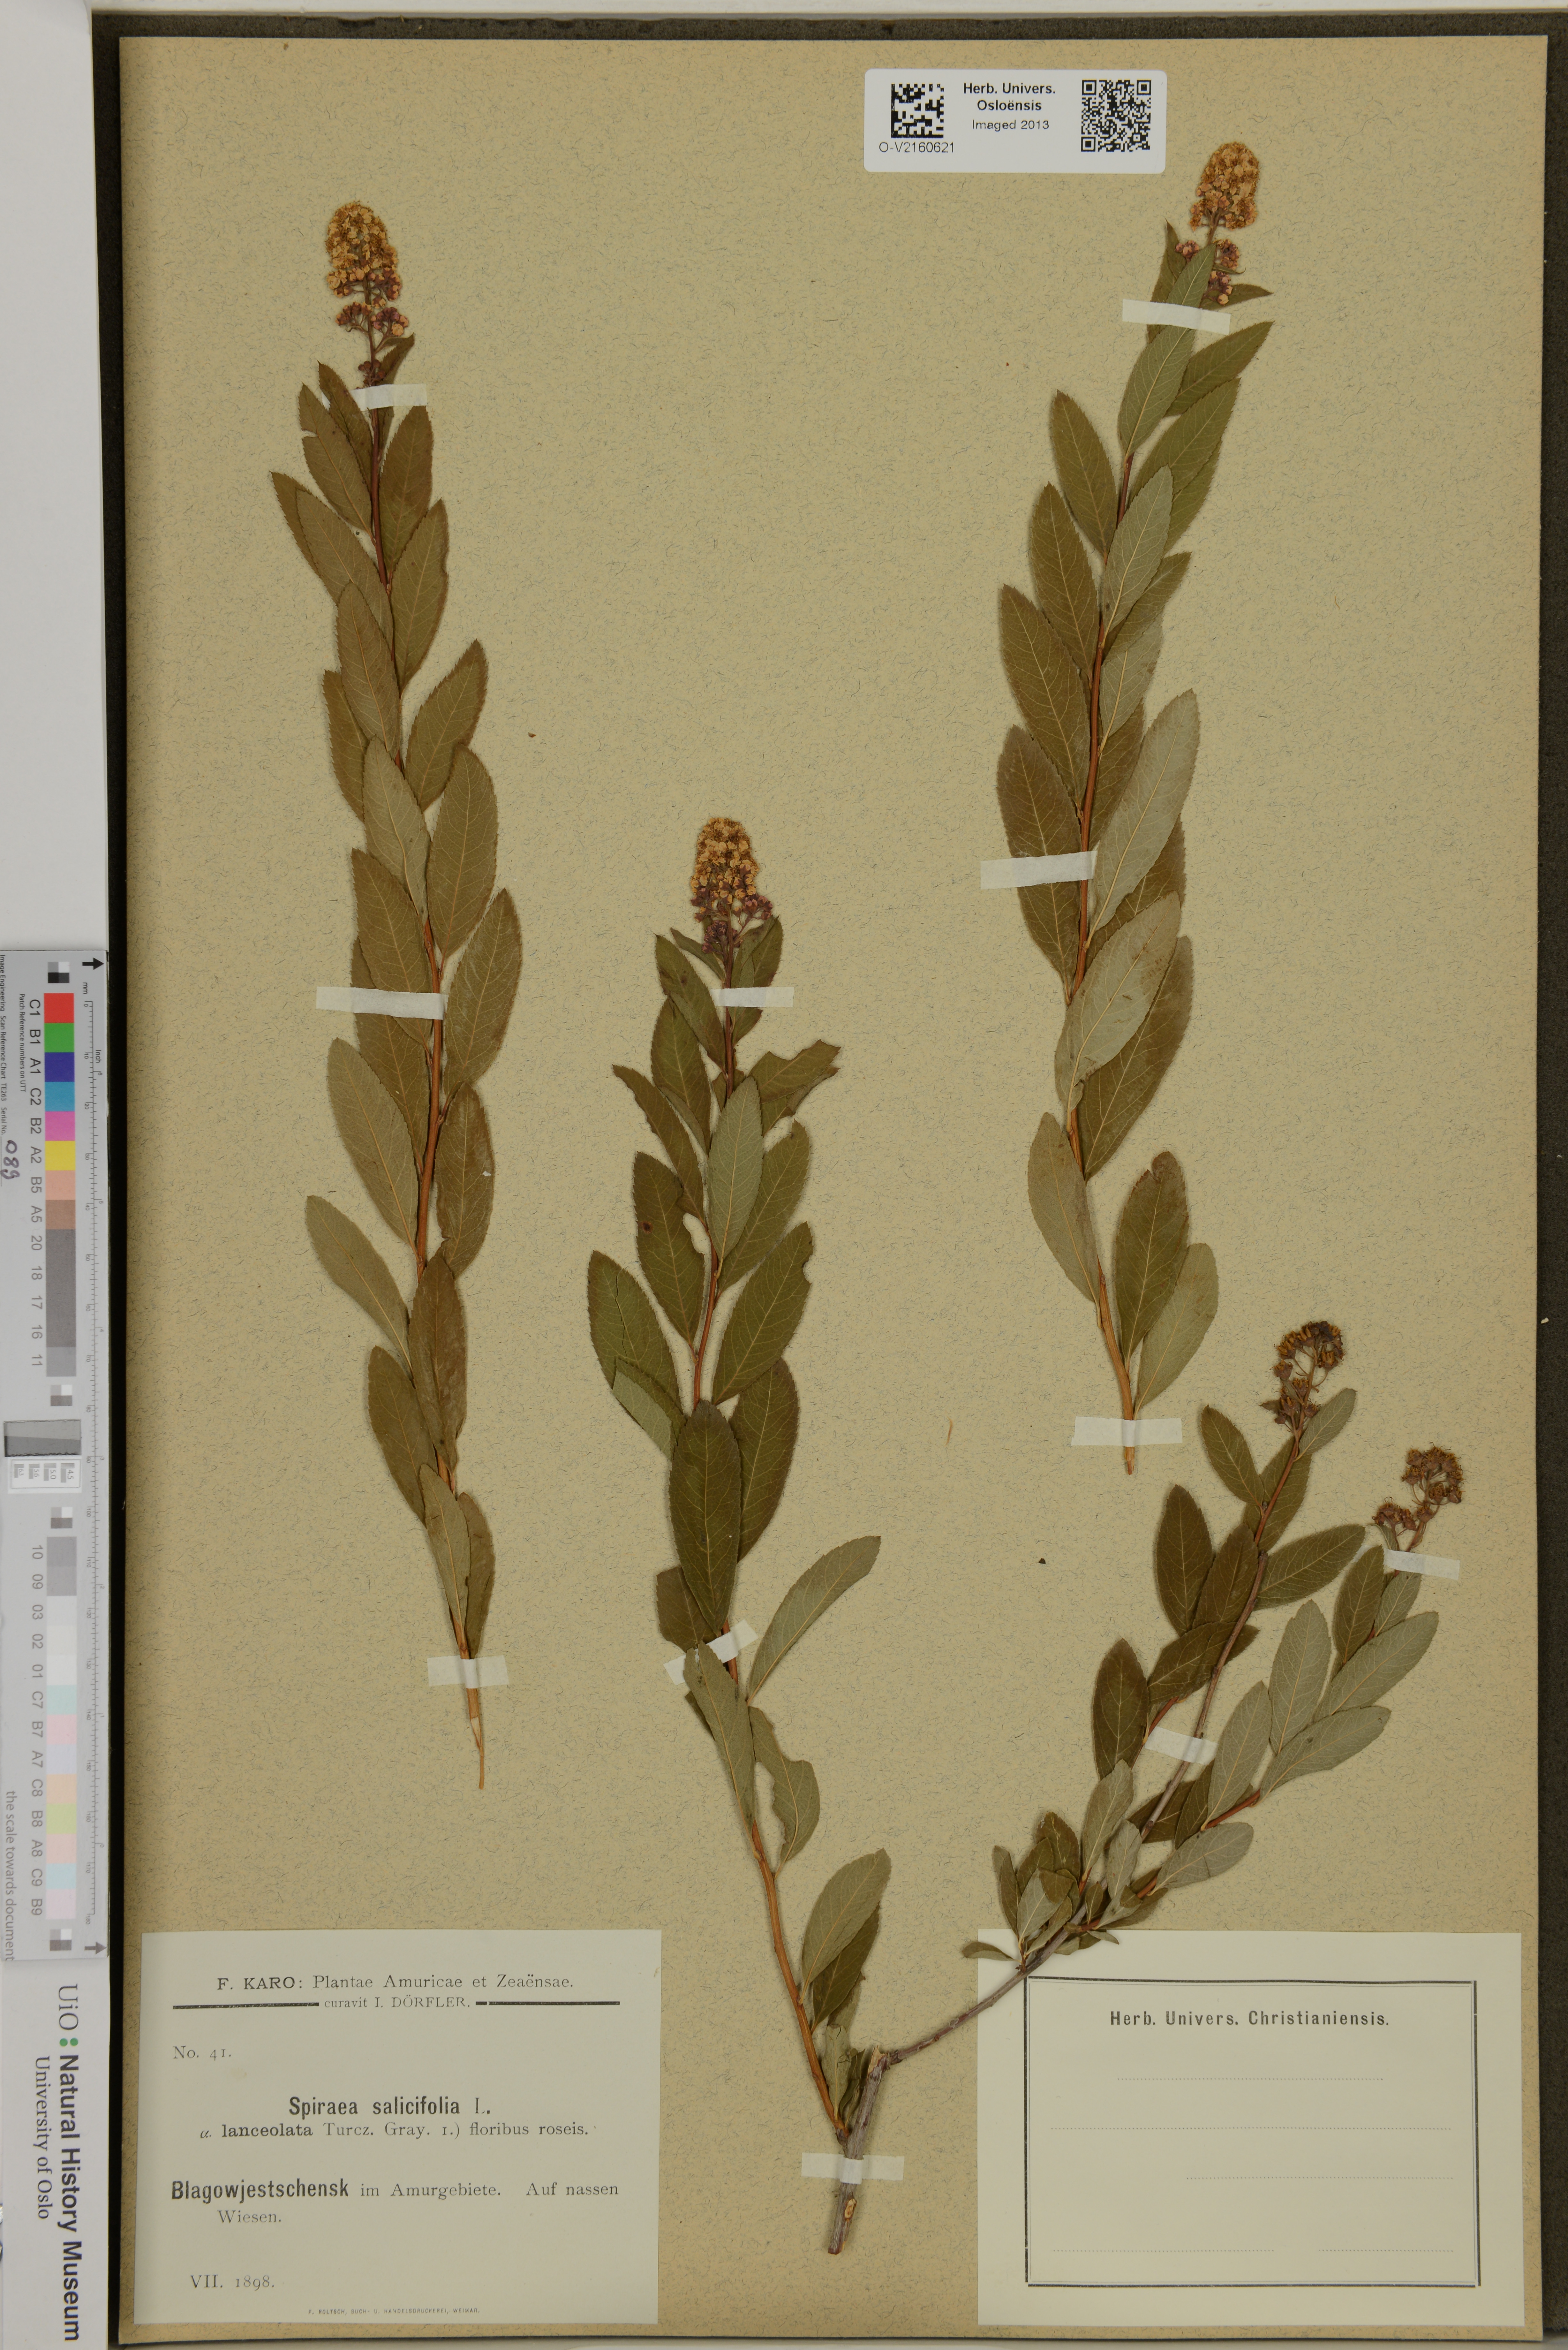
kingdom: Plantae
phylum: Tracheophyta
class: Magnoliopsida
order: Rosales
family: Rosaceae
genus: Spiraea
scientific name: Spiraea salicifolia
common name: Bridewort
